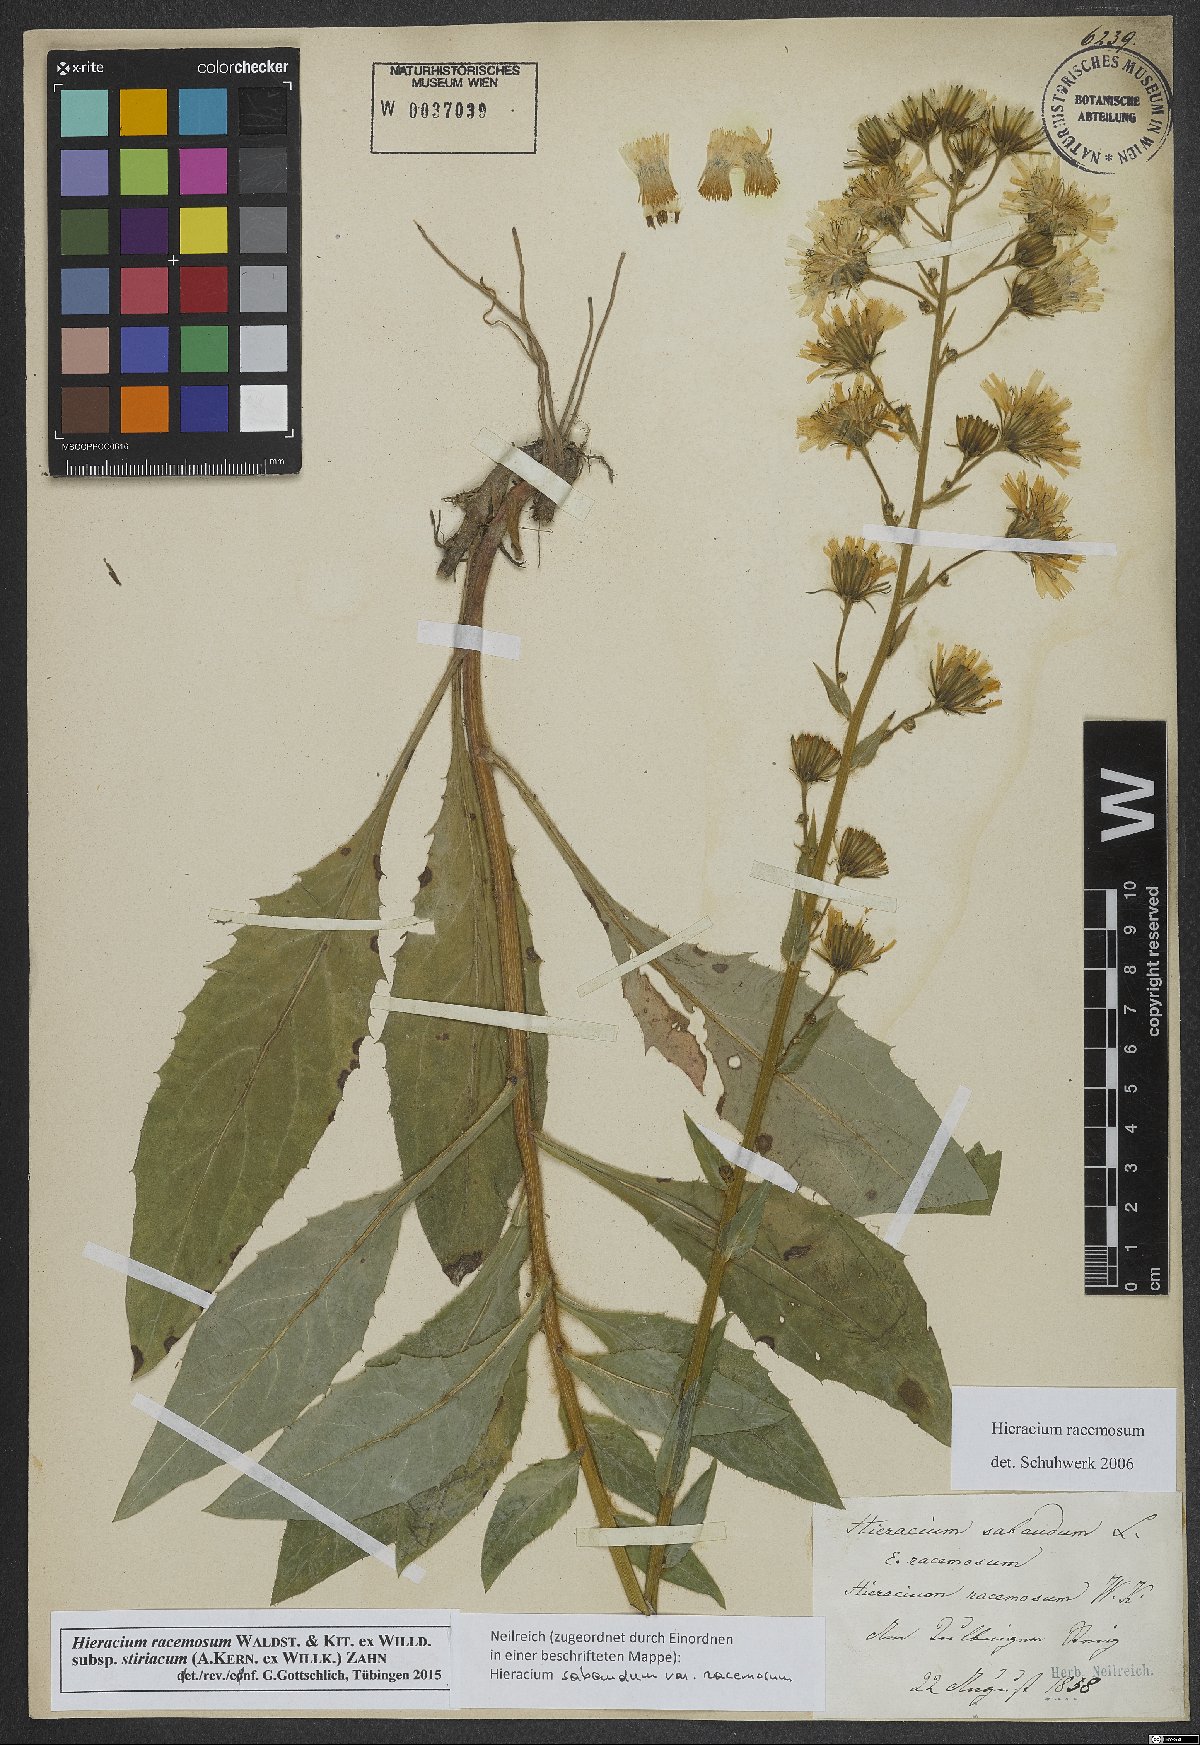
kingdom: Plantae
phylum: Tracheophyta
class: Magnoliopsida
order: Asterales
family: Asteraceae
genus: Hieracium
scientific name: Hieracium racemosum
